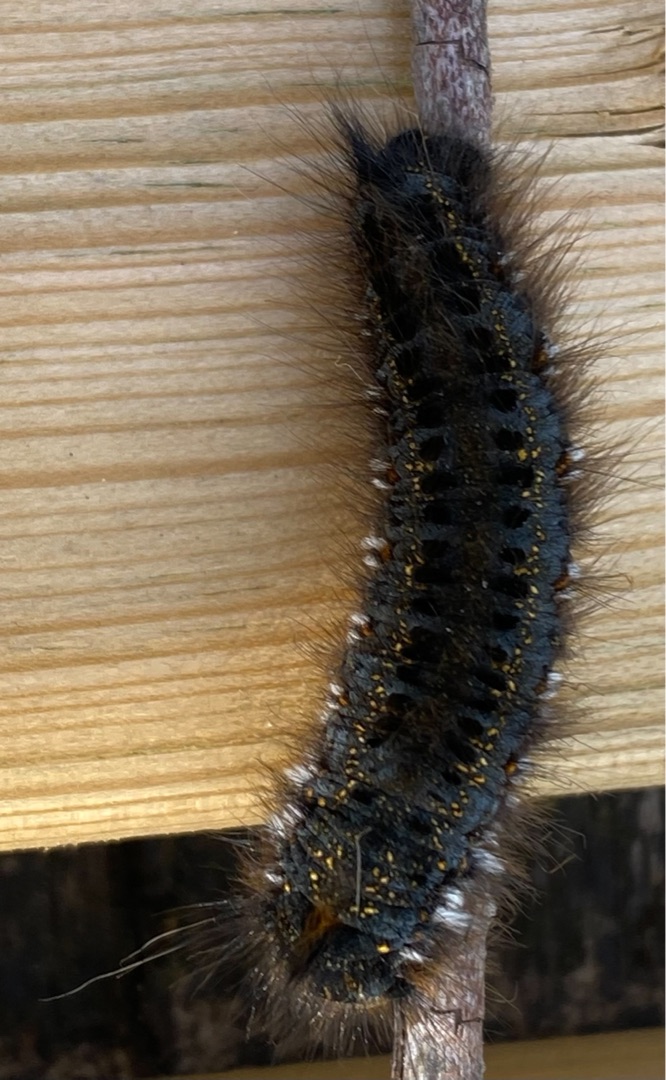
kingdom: Animalia
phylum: Arthropoda
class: Insecta
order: Lepidoptera
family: Lasiocampidae
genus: Euthrix
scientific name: Euthrix potatoria
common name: Græsspinder
